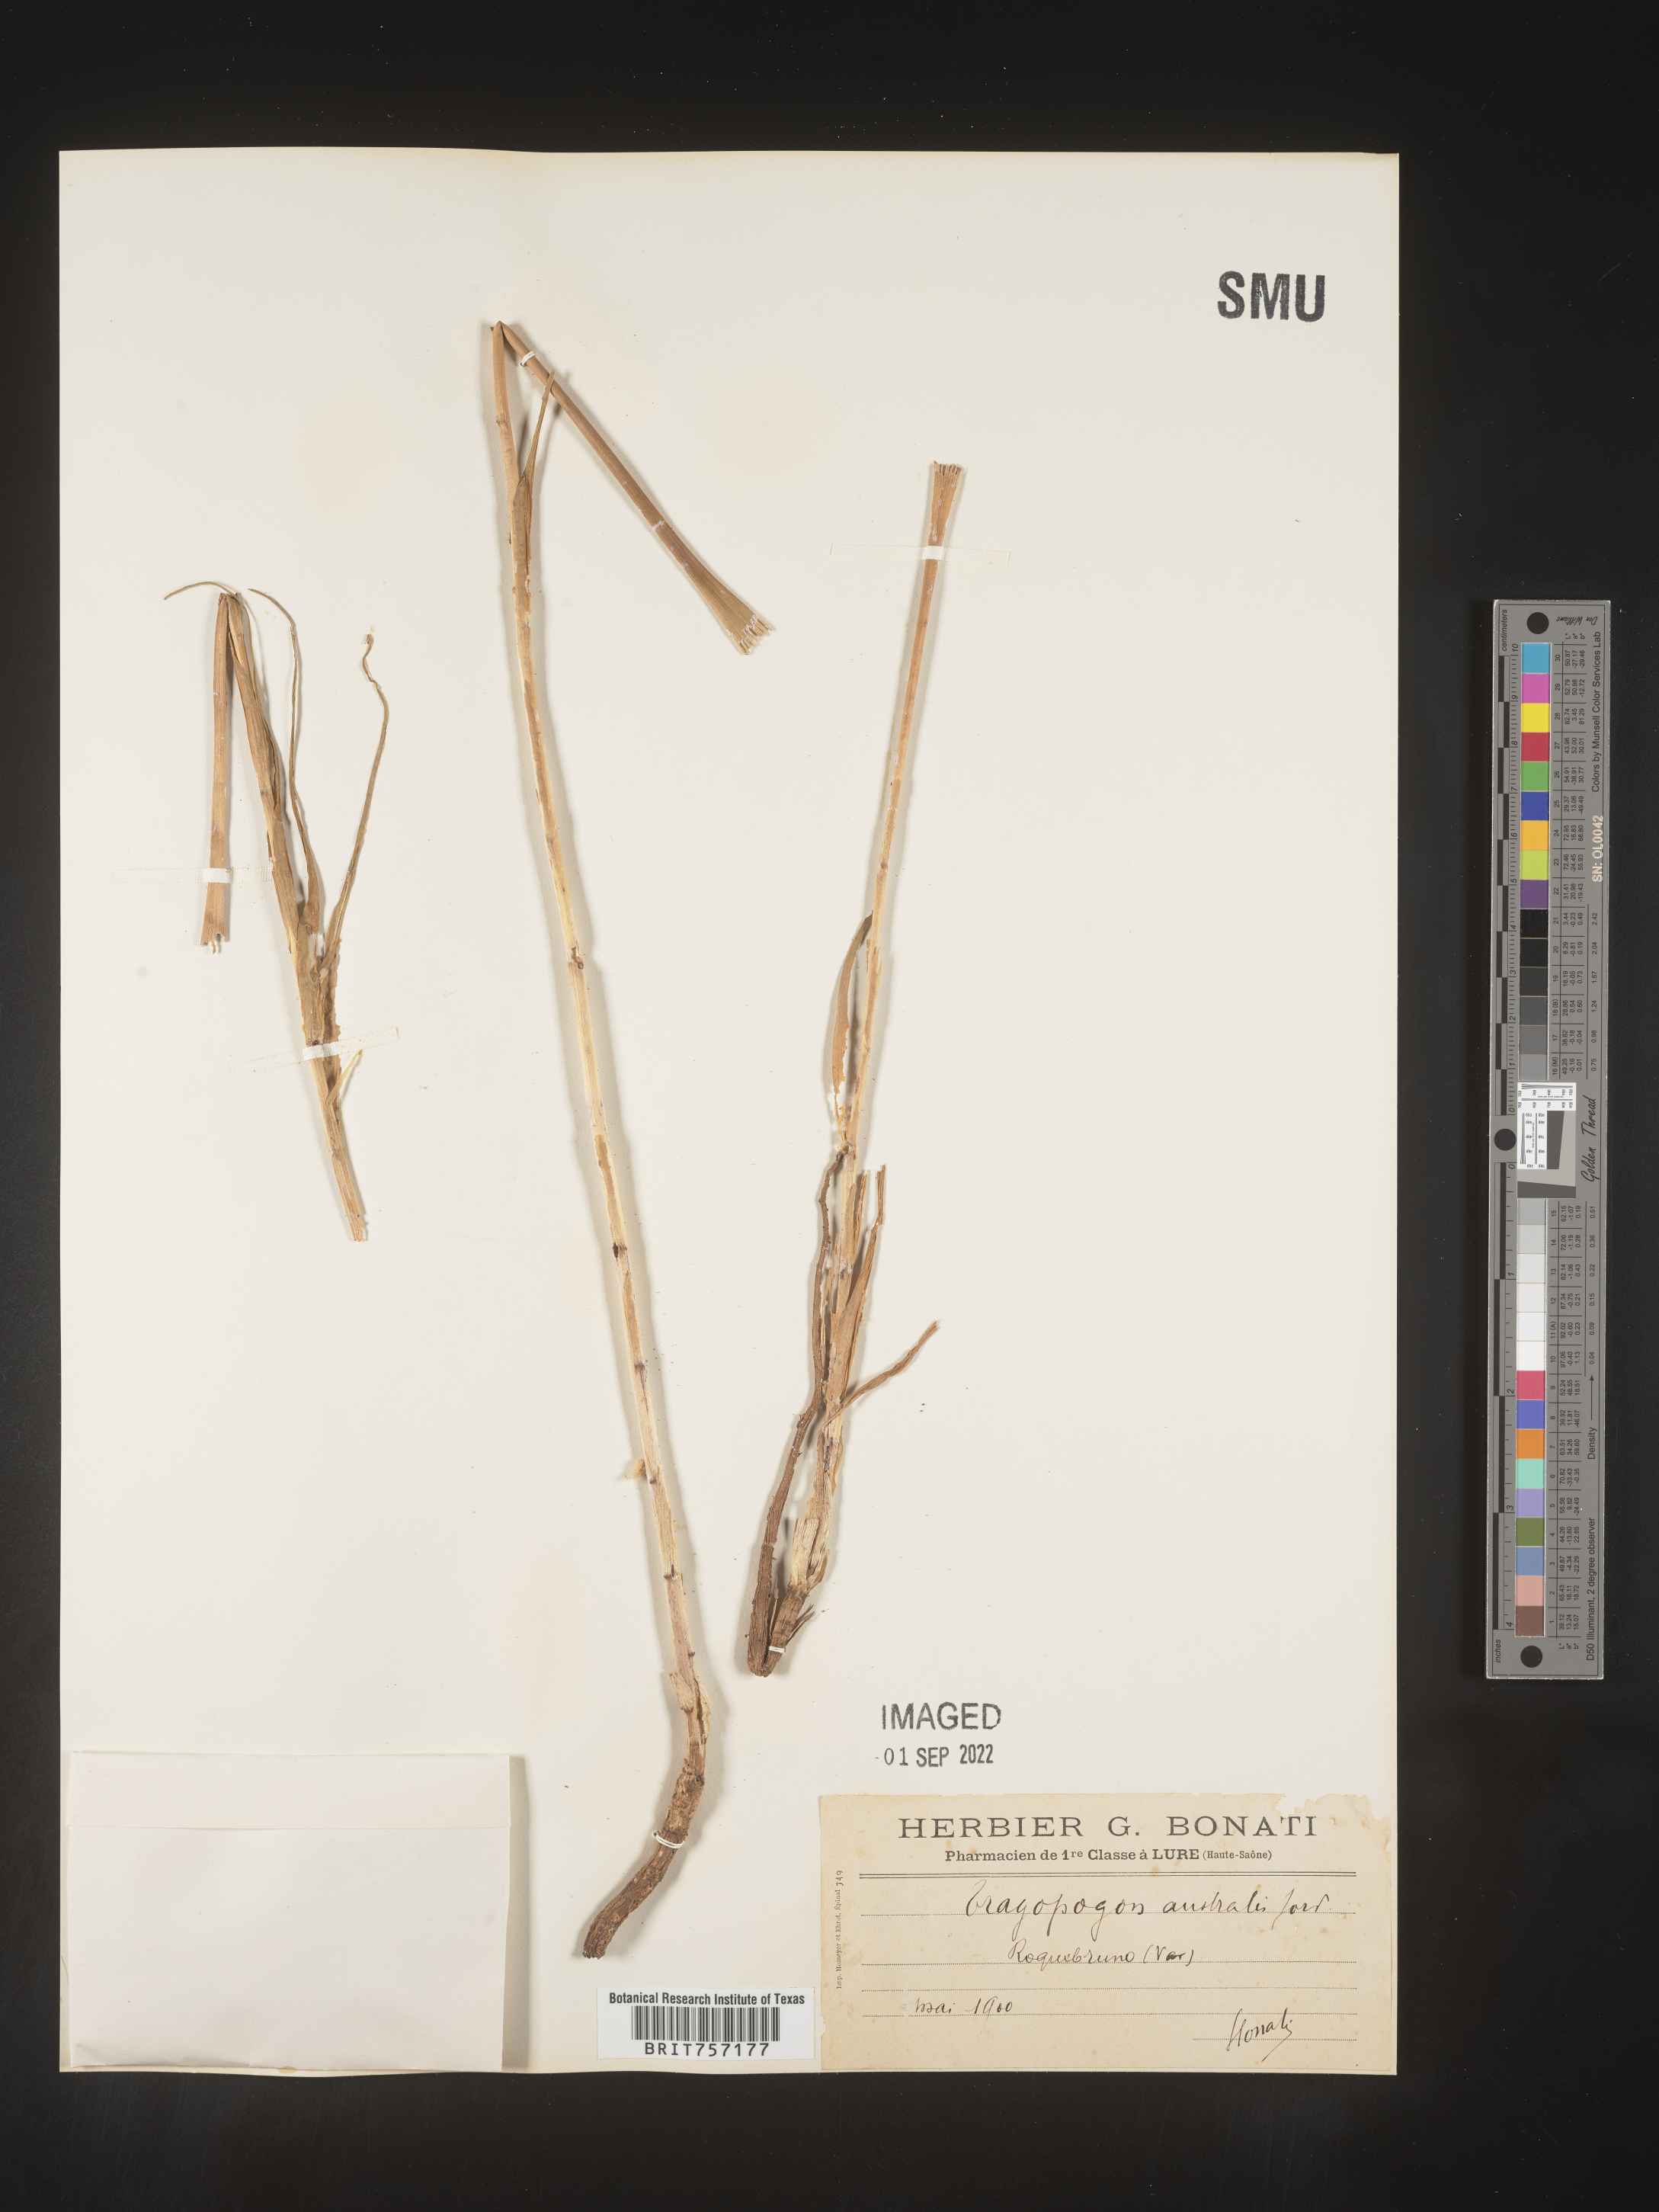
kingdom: Plantae
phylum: Tracheophyta
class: Magnoliopsida
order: Asterales
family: Asteraceae
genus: Tragopogon
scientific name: Tragopogon
